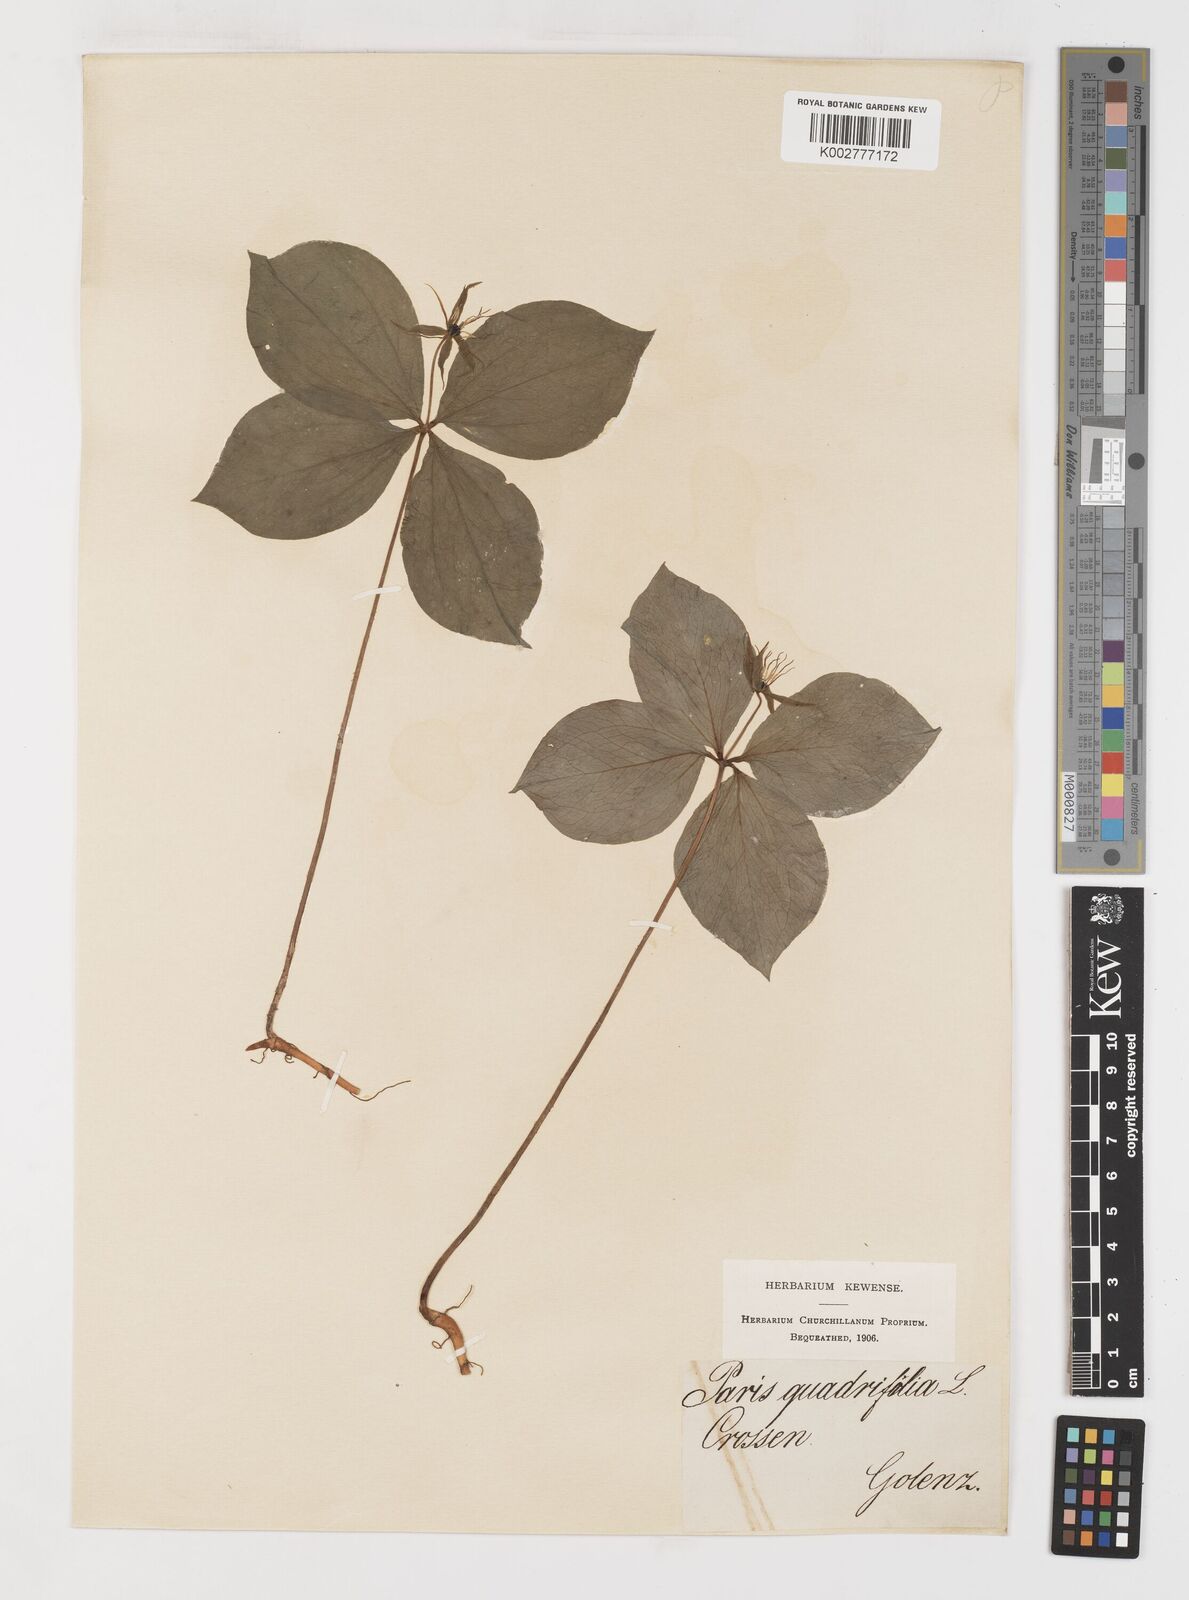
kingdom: Plantae
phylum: Tracheophyta
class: Liliopsida
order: Liliales
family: Melanthiaceae
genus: Paris
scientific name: Paris quadrifolia
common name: Herb-paris
